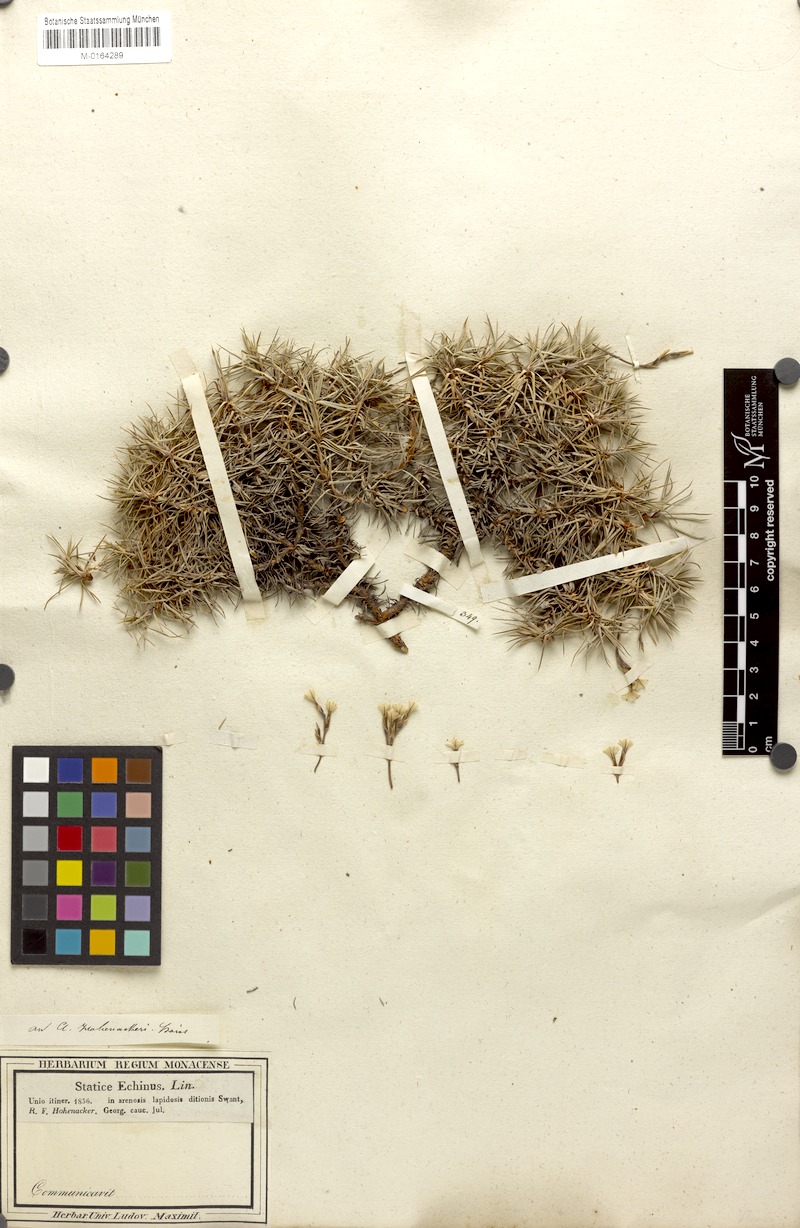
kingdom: Plantae
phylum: Tracheophyta
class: Magnoliopsida
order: Caryophyllales
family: Plumbaginaceae
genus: Acantholimon
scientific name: Acantholimon hohenackeri
